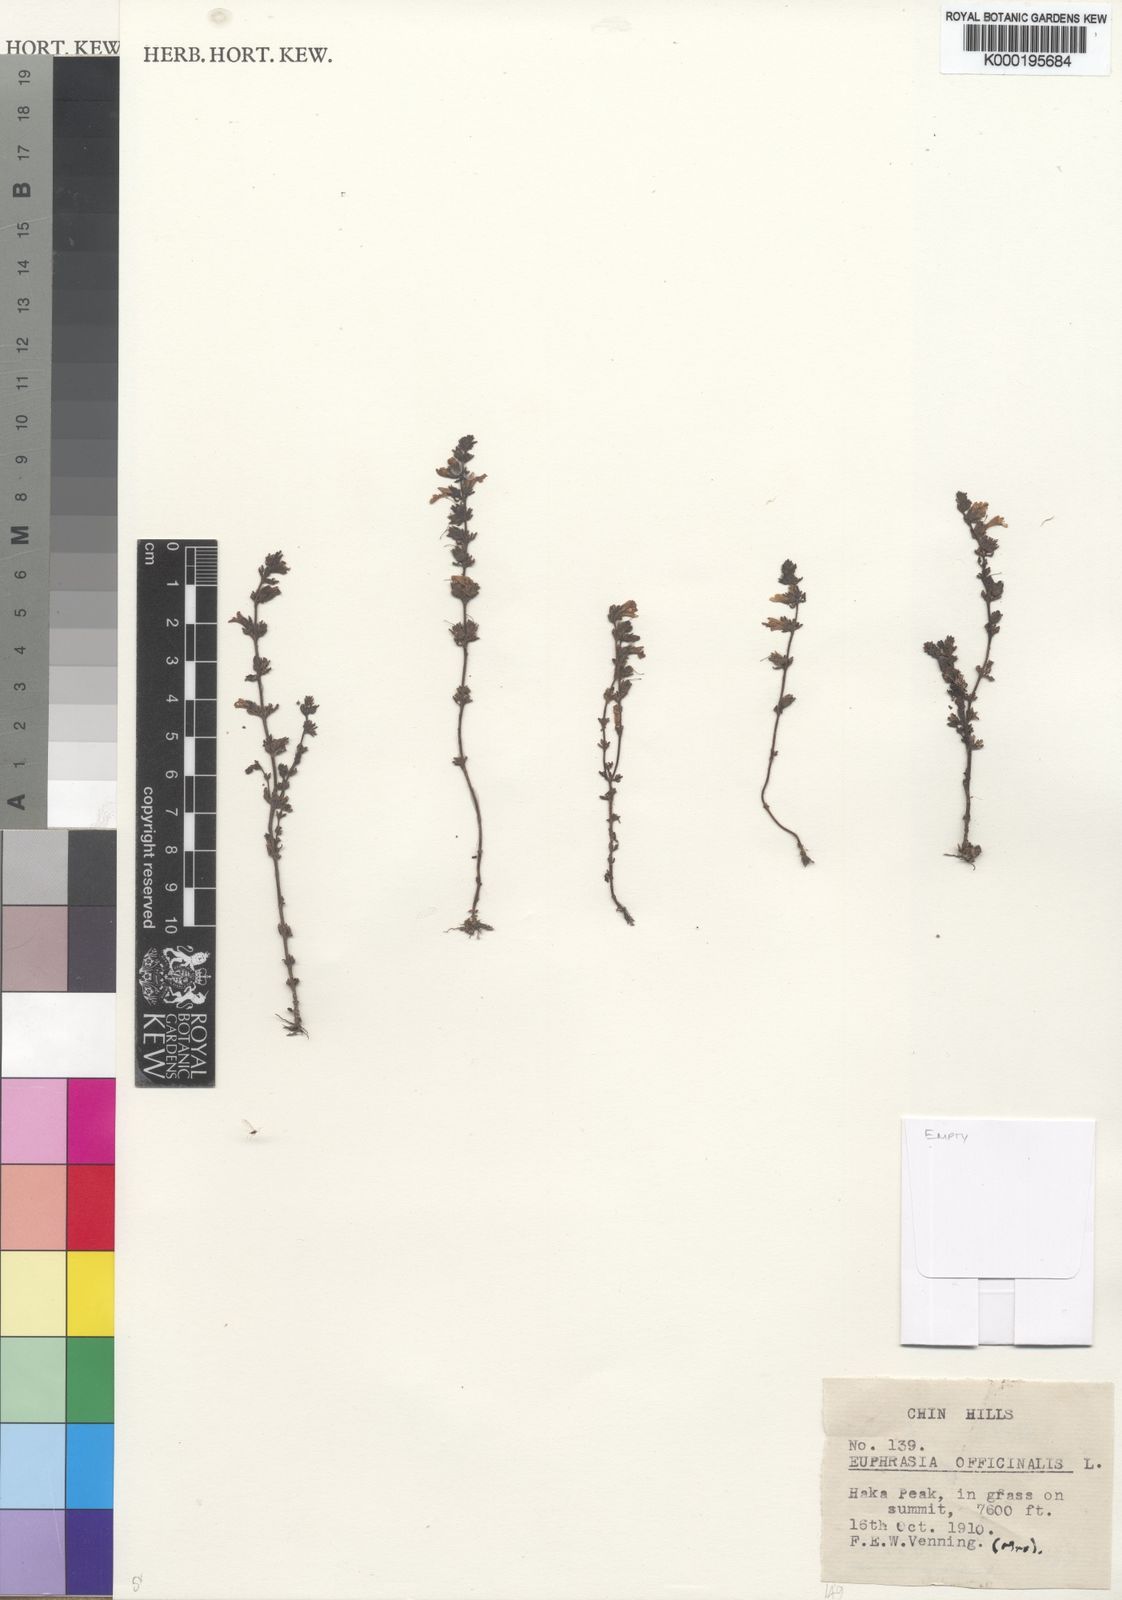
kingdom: Plantae
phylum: Tracheophyta
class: Magnoliopsida
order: Lamiales
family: Orobanchaceae
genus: Euphrasia
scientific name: Euphrasia officinalis
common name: Eyebright
